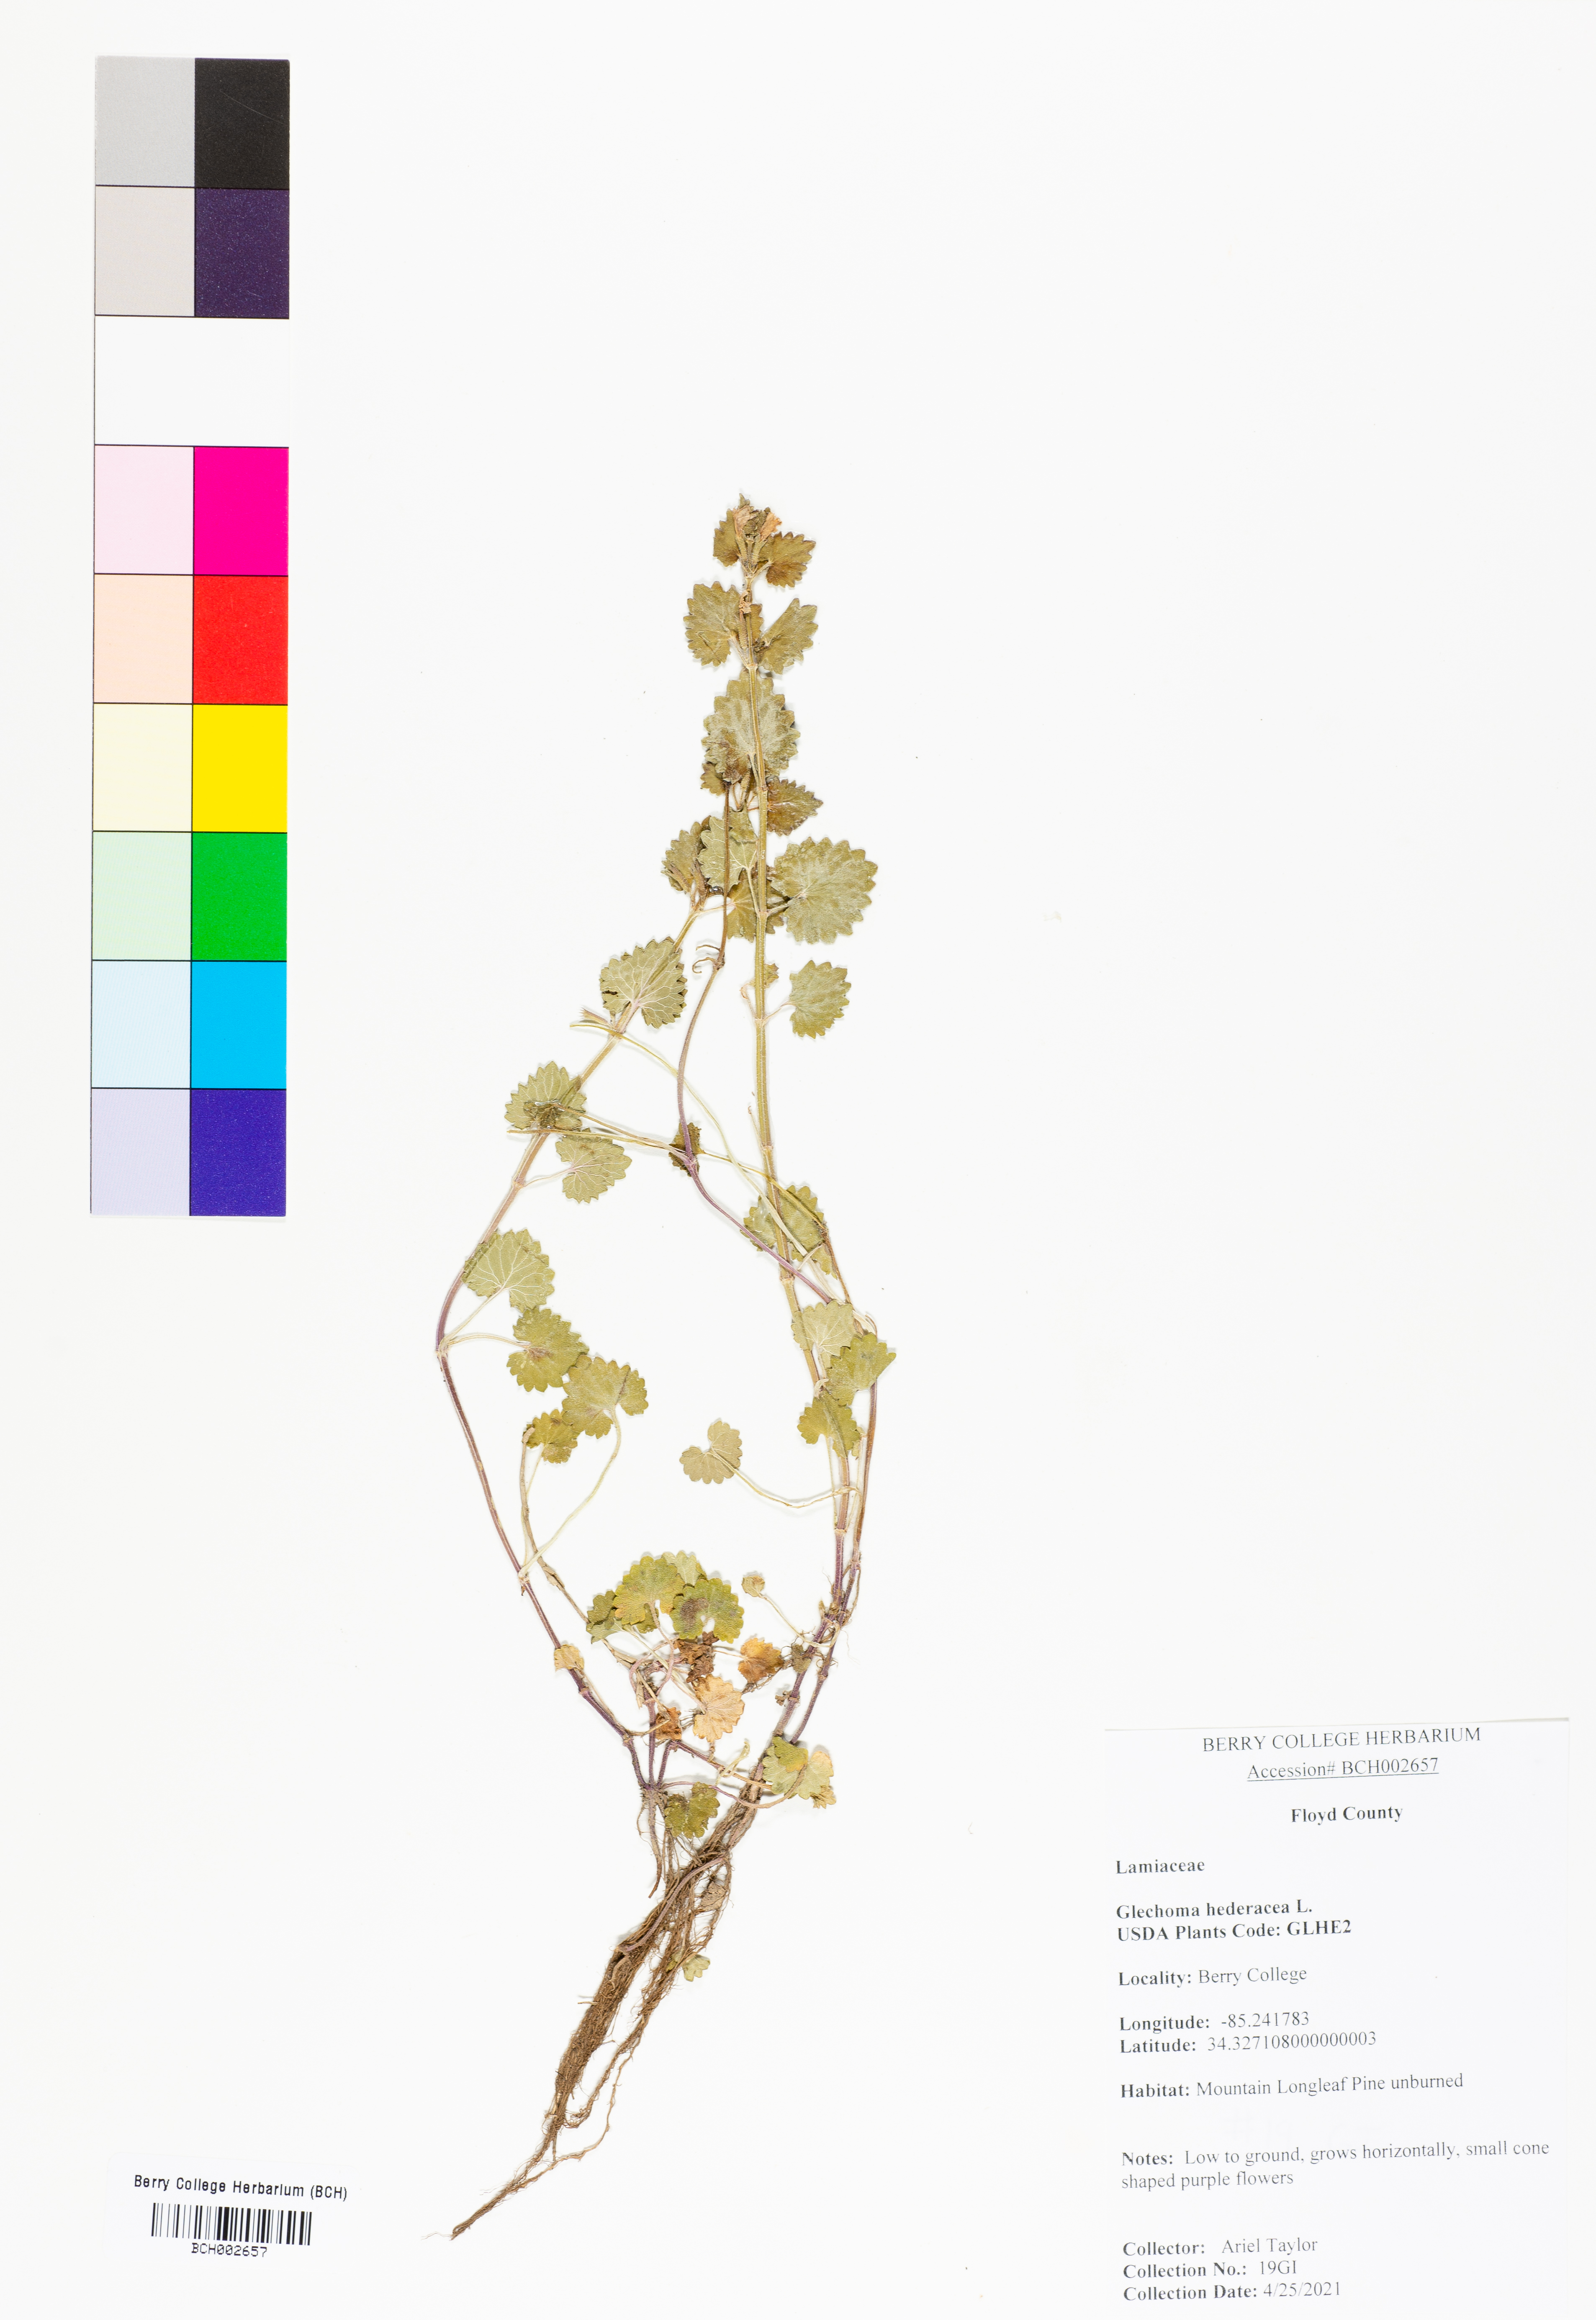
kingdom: Plantae
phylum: Tracheophyta
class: Magnoliopsida
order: Lamiales
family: Lamiaceae
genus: Glechoma
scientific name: Glechoma hederacea
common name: Ground ivy
